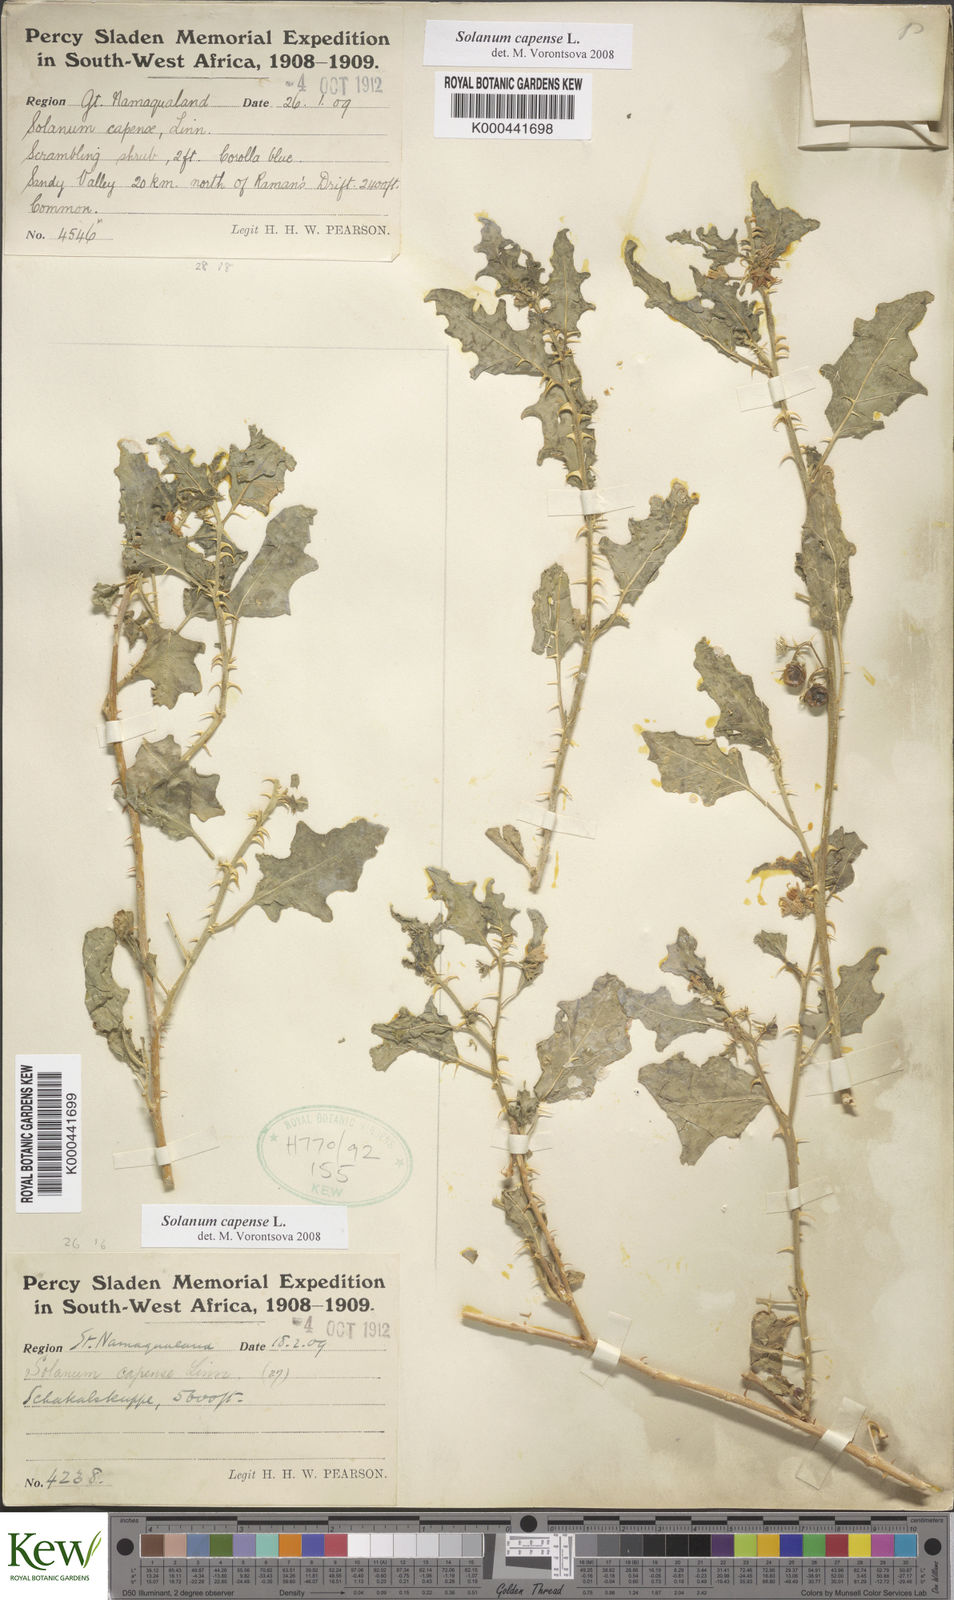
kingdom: Plantae
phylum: Tracheophyta
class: Magnoliopsida
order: Solanales
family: Solanaceae
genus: Solanum
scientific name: Solanum capense
